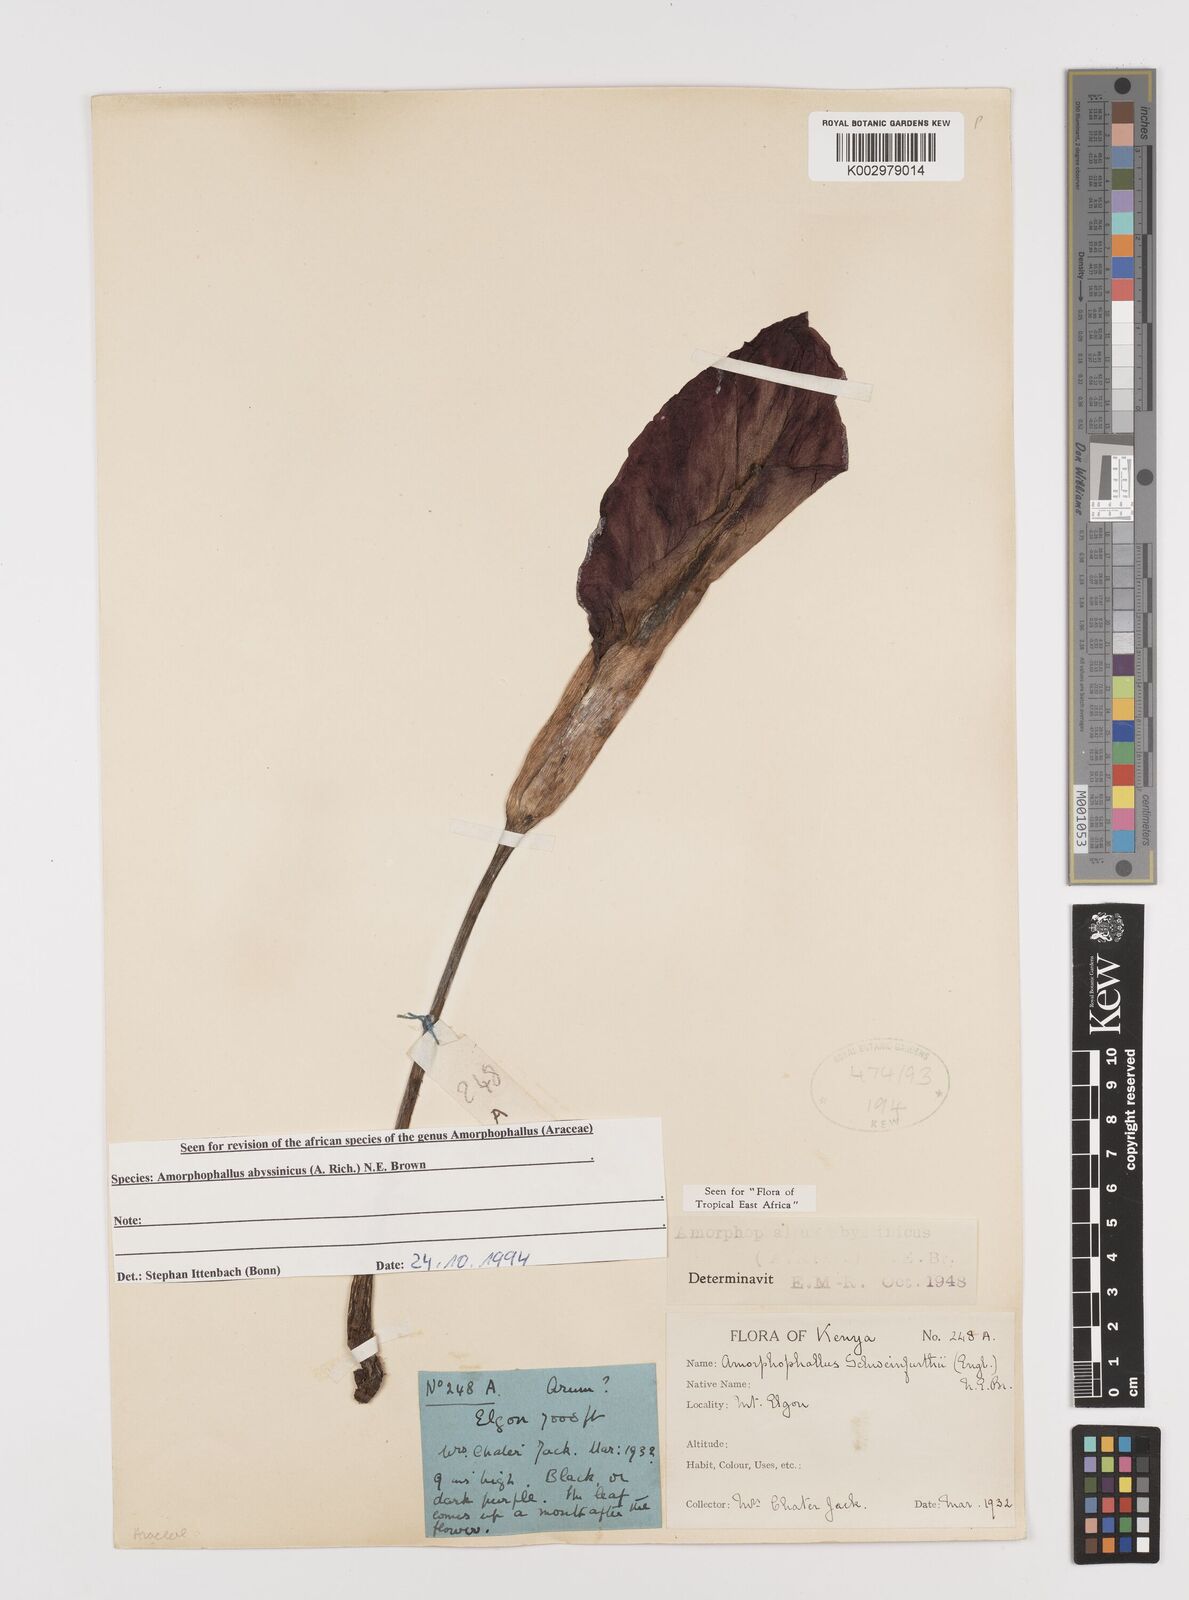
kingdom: Plantae
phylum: Tracheophyta
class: Liliopsida
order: Alismatales
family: Araceae
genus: Amorphophallus
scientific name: Amorphophallus abyssinicus
